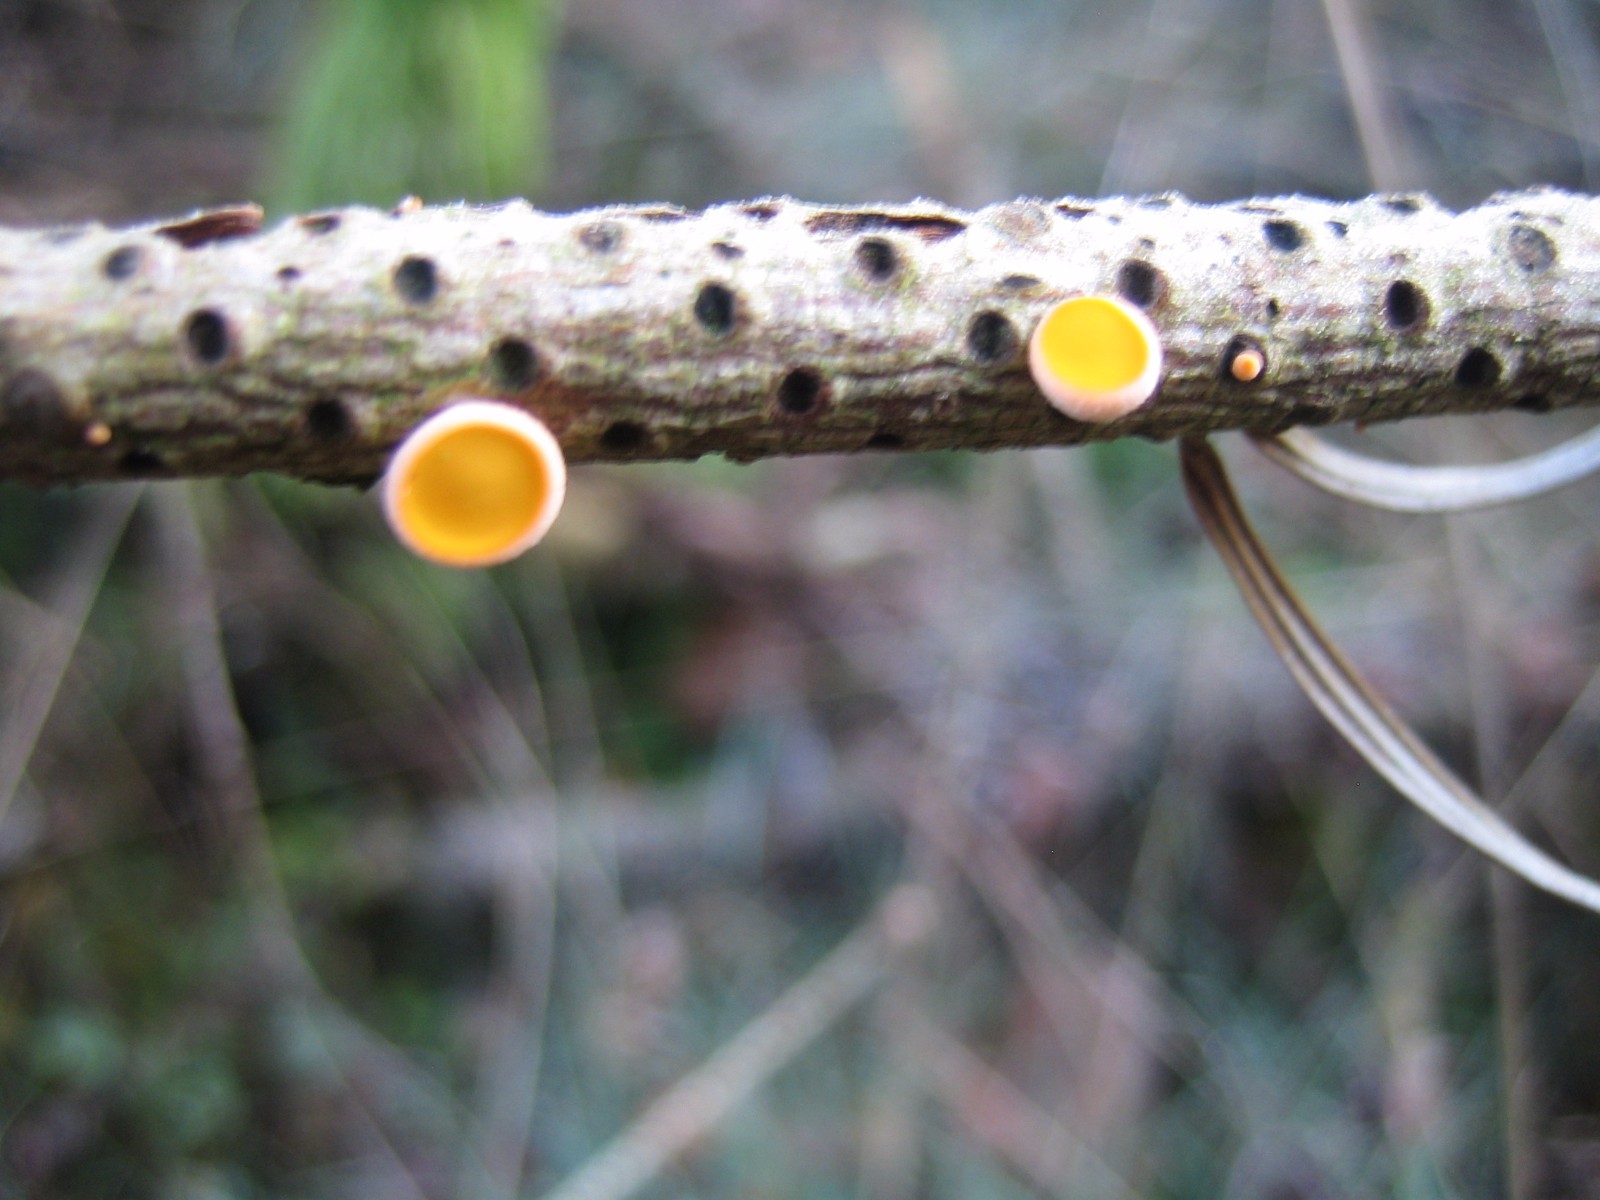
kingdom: Fungi
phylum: Ascomycota
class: Pezizomycetes
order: Pezizales
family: Sarcoscyphaceae
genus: Pithya
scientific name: Pithya vulgaris
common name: stor dukatbæger
